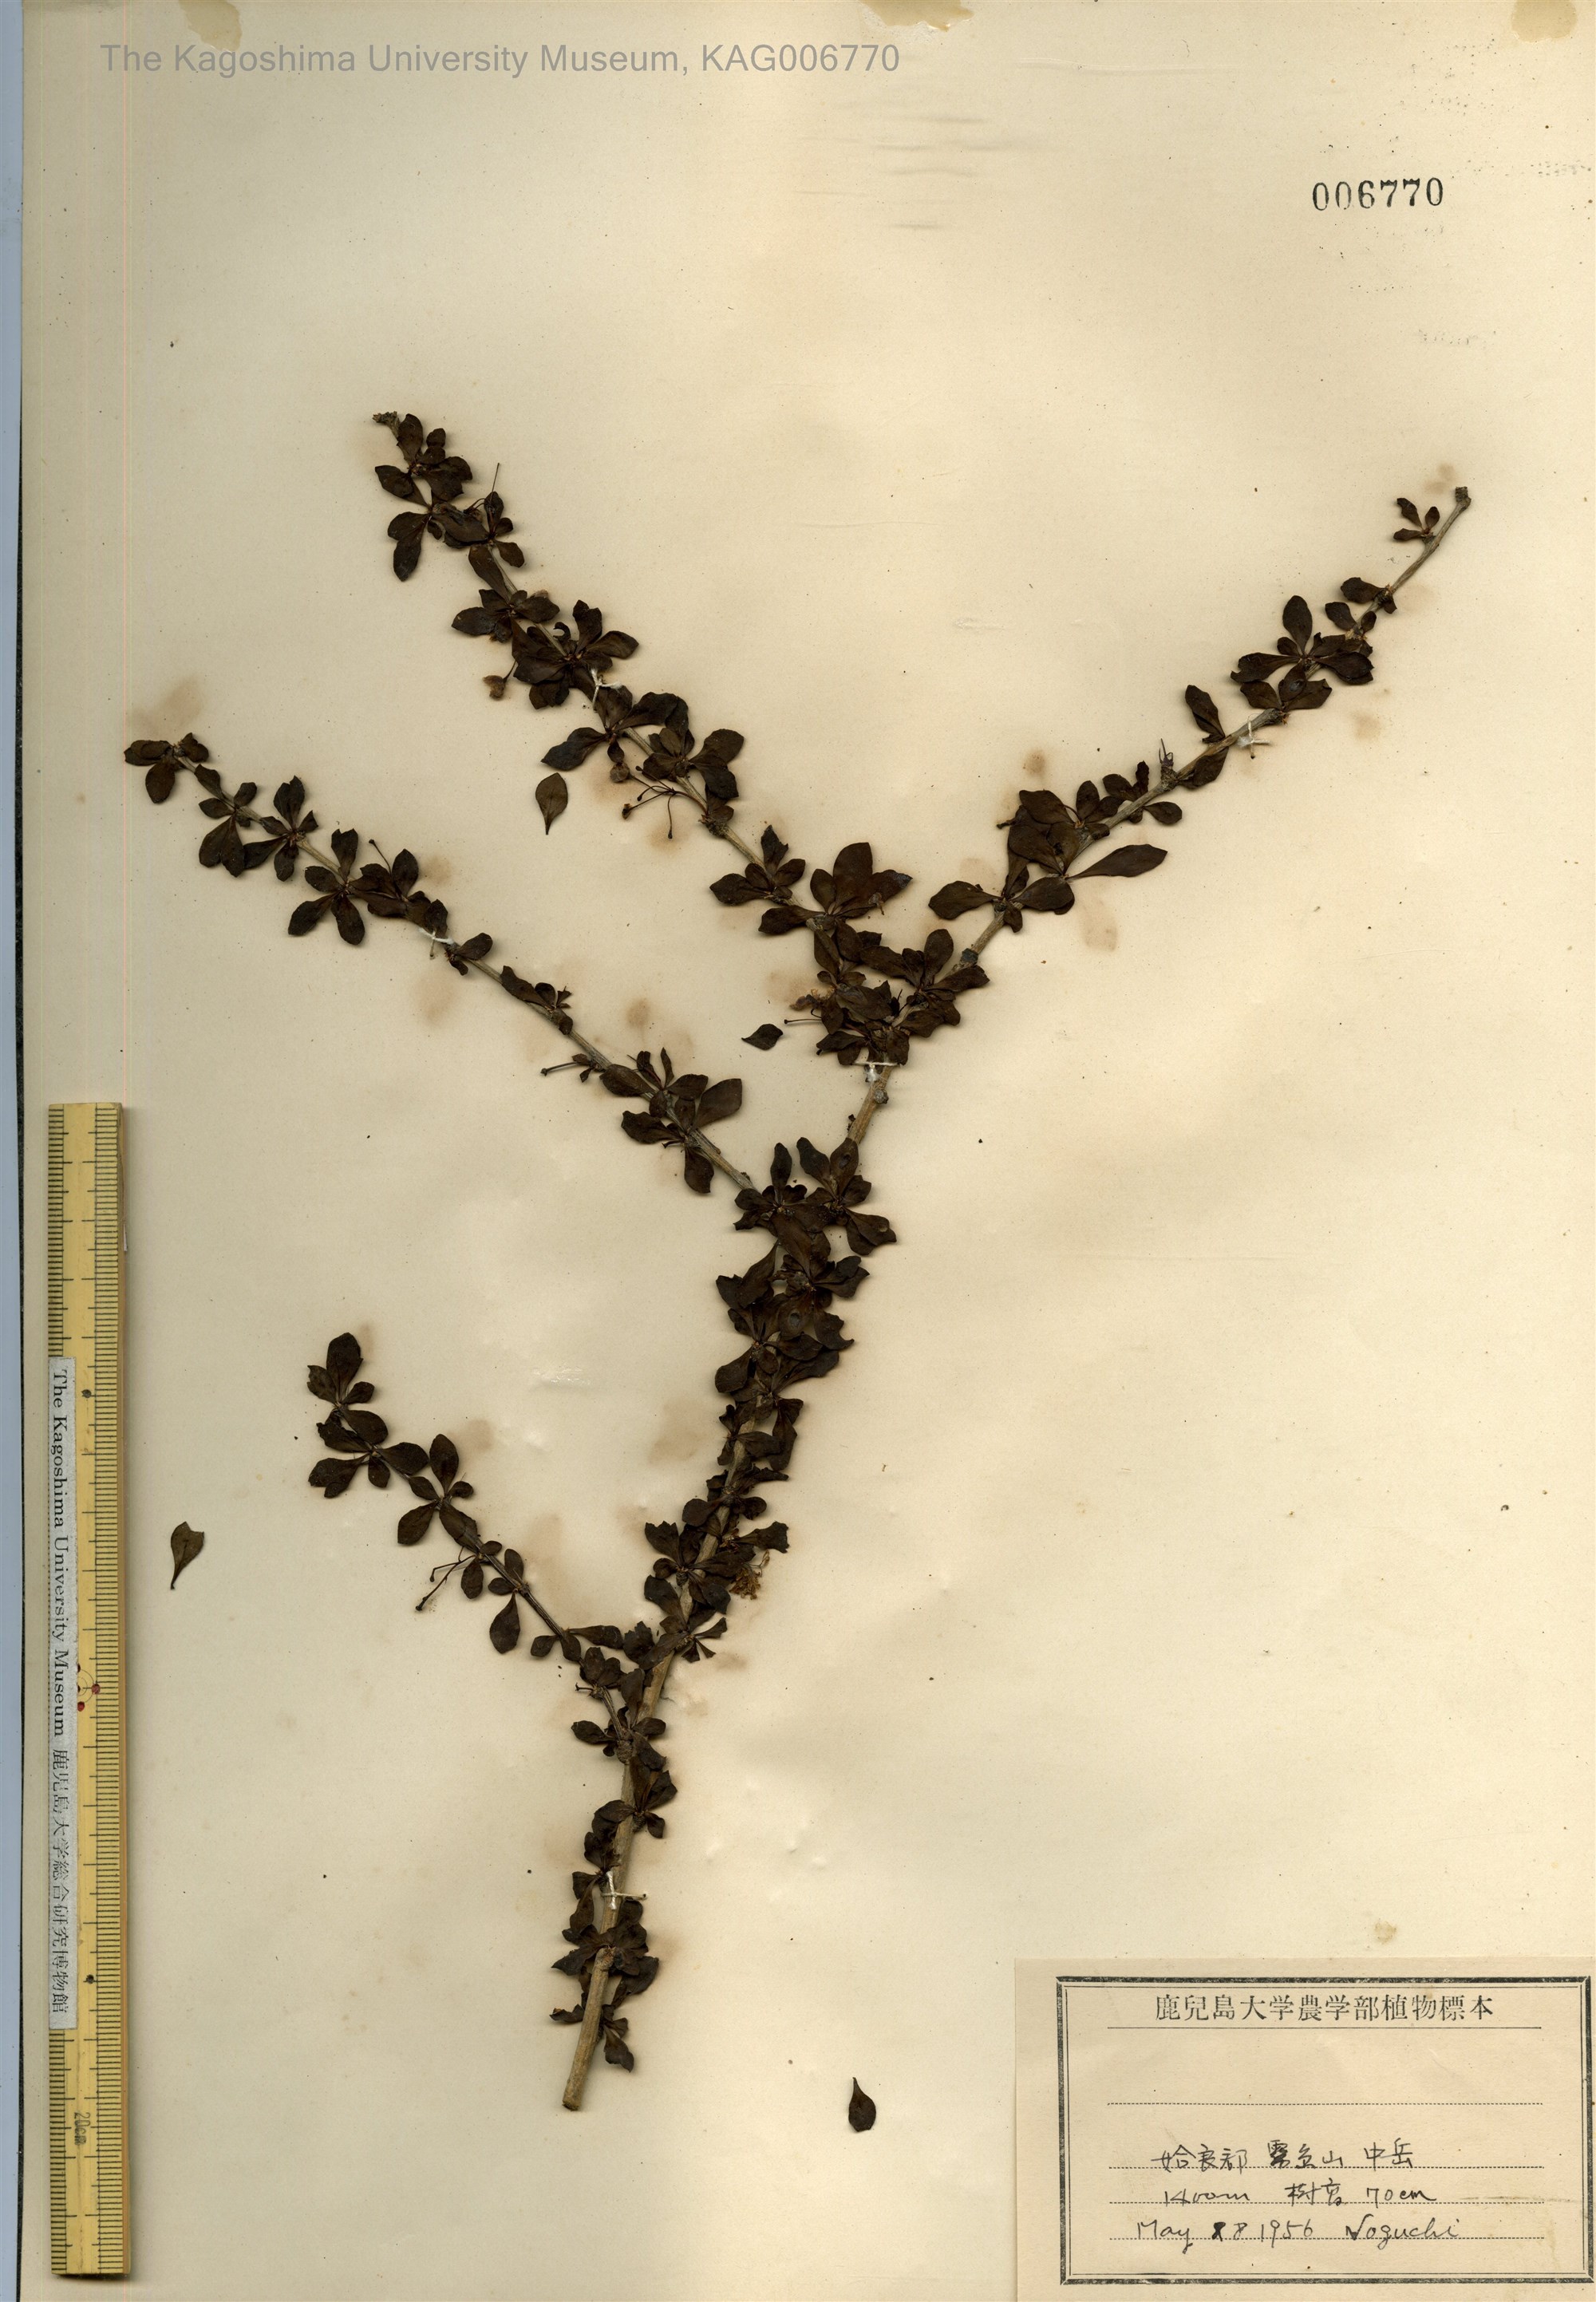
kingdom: Plantae
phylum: Tracheophyta
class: Magnoliopsida
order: Ranunculales
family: Berberidaceae
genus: Berberis
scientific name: Berberis thunbergii
